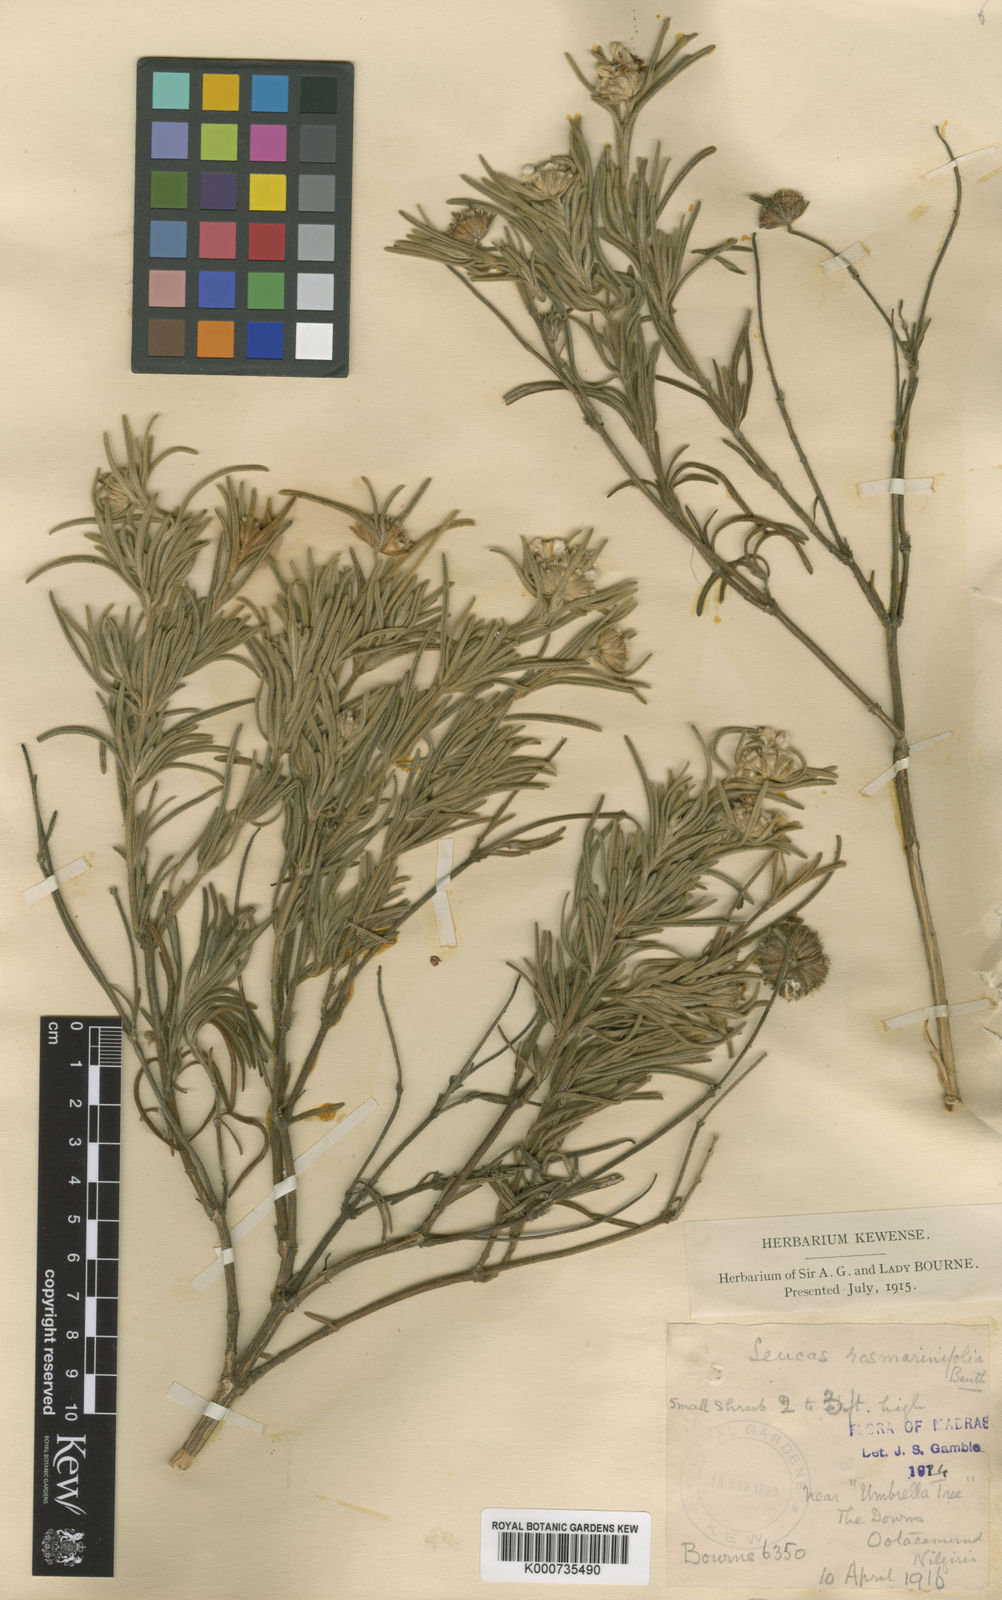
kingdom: Plantae
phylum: Tracheophyta
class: Magnoliopsida
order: Lamiales
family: Lamiaceae
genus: Leucas
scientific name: Leucas rosmarinifolia
